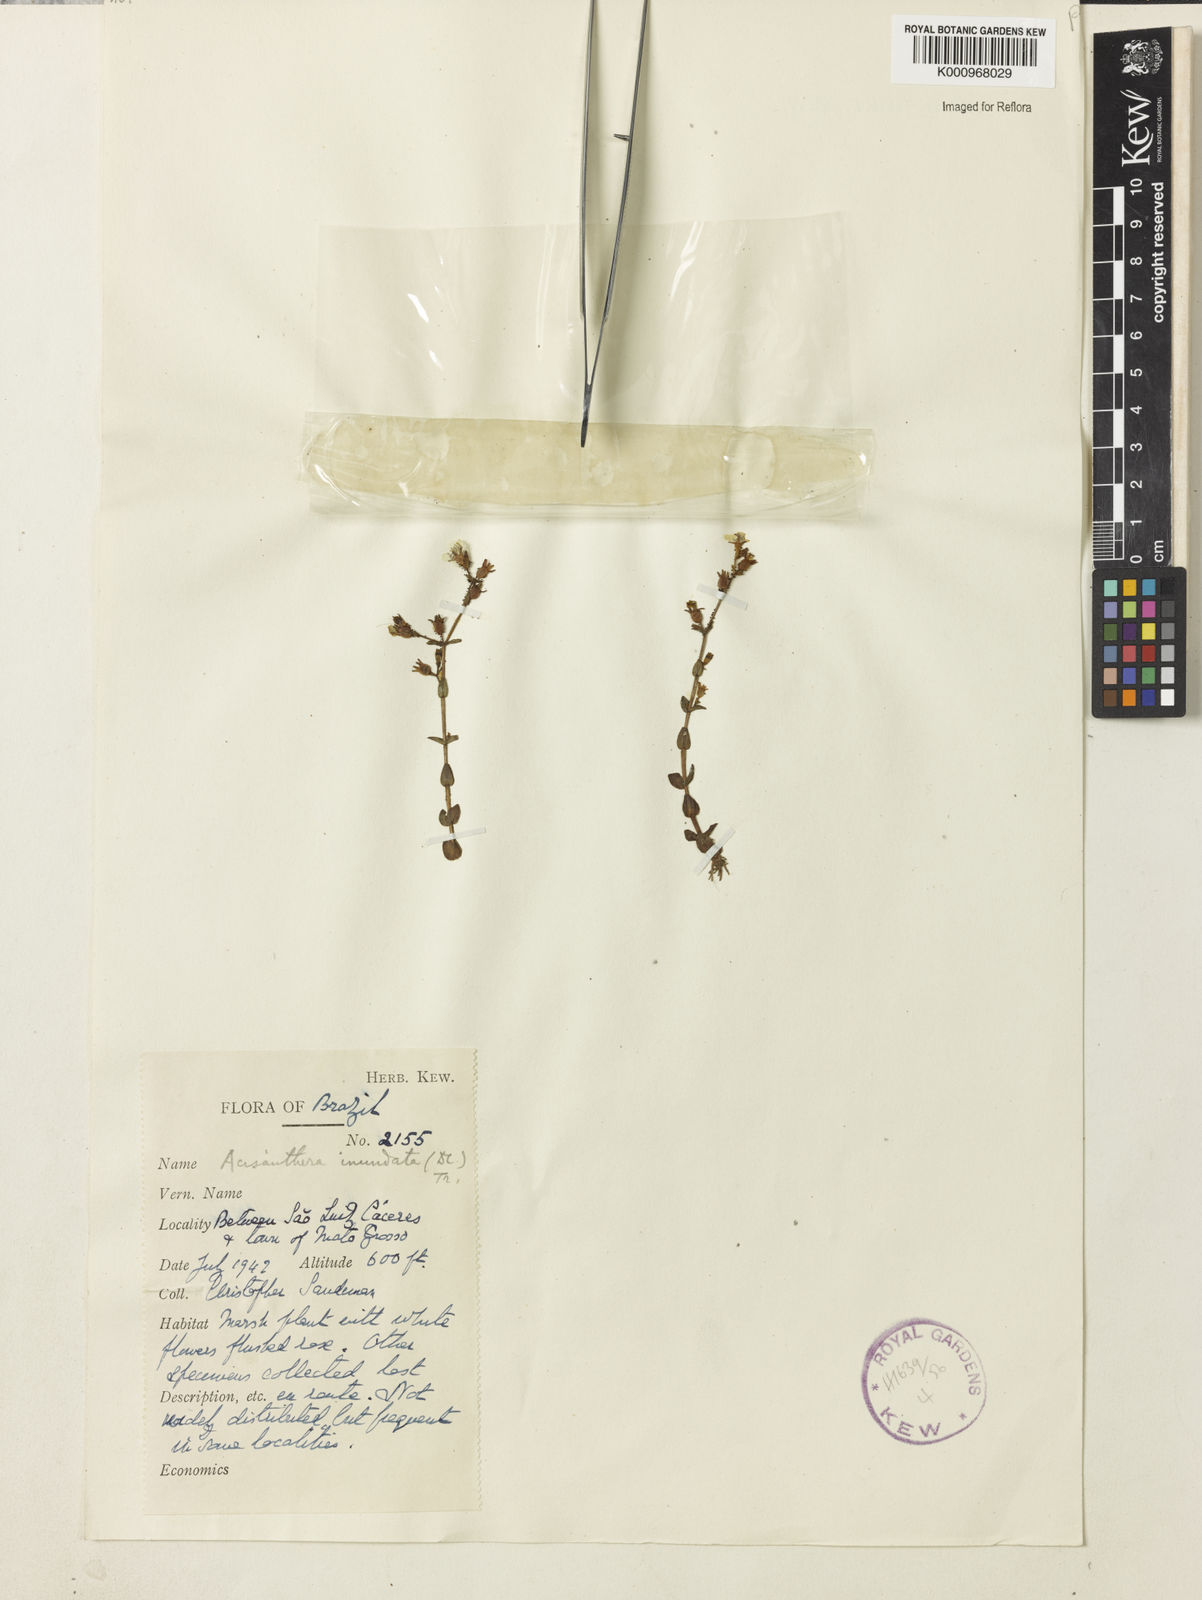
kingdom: Plantae
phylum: Tracheophyta
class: Magnoliopsida
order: Myrtales
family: Melastomataceae
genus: Noterophila
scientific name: Noterophila inundata
